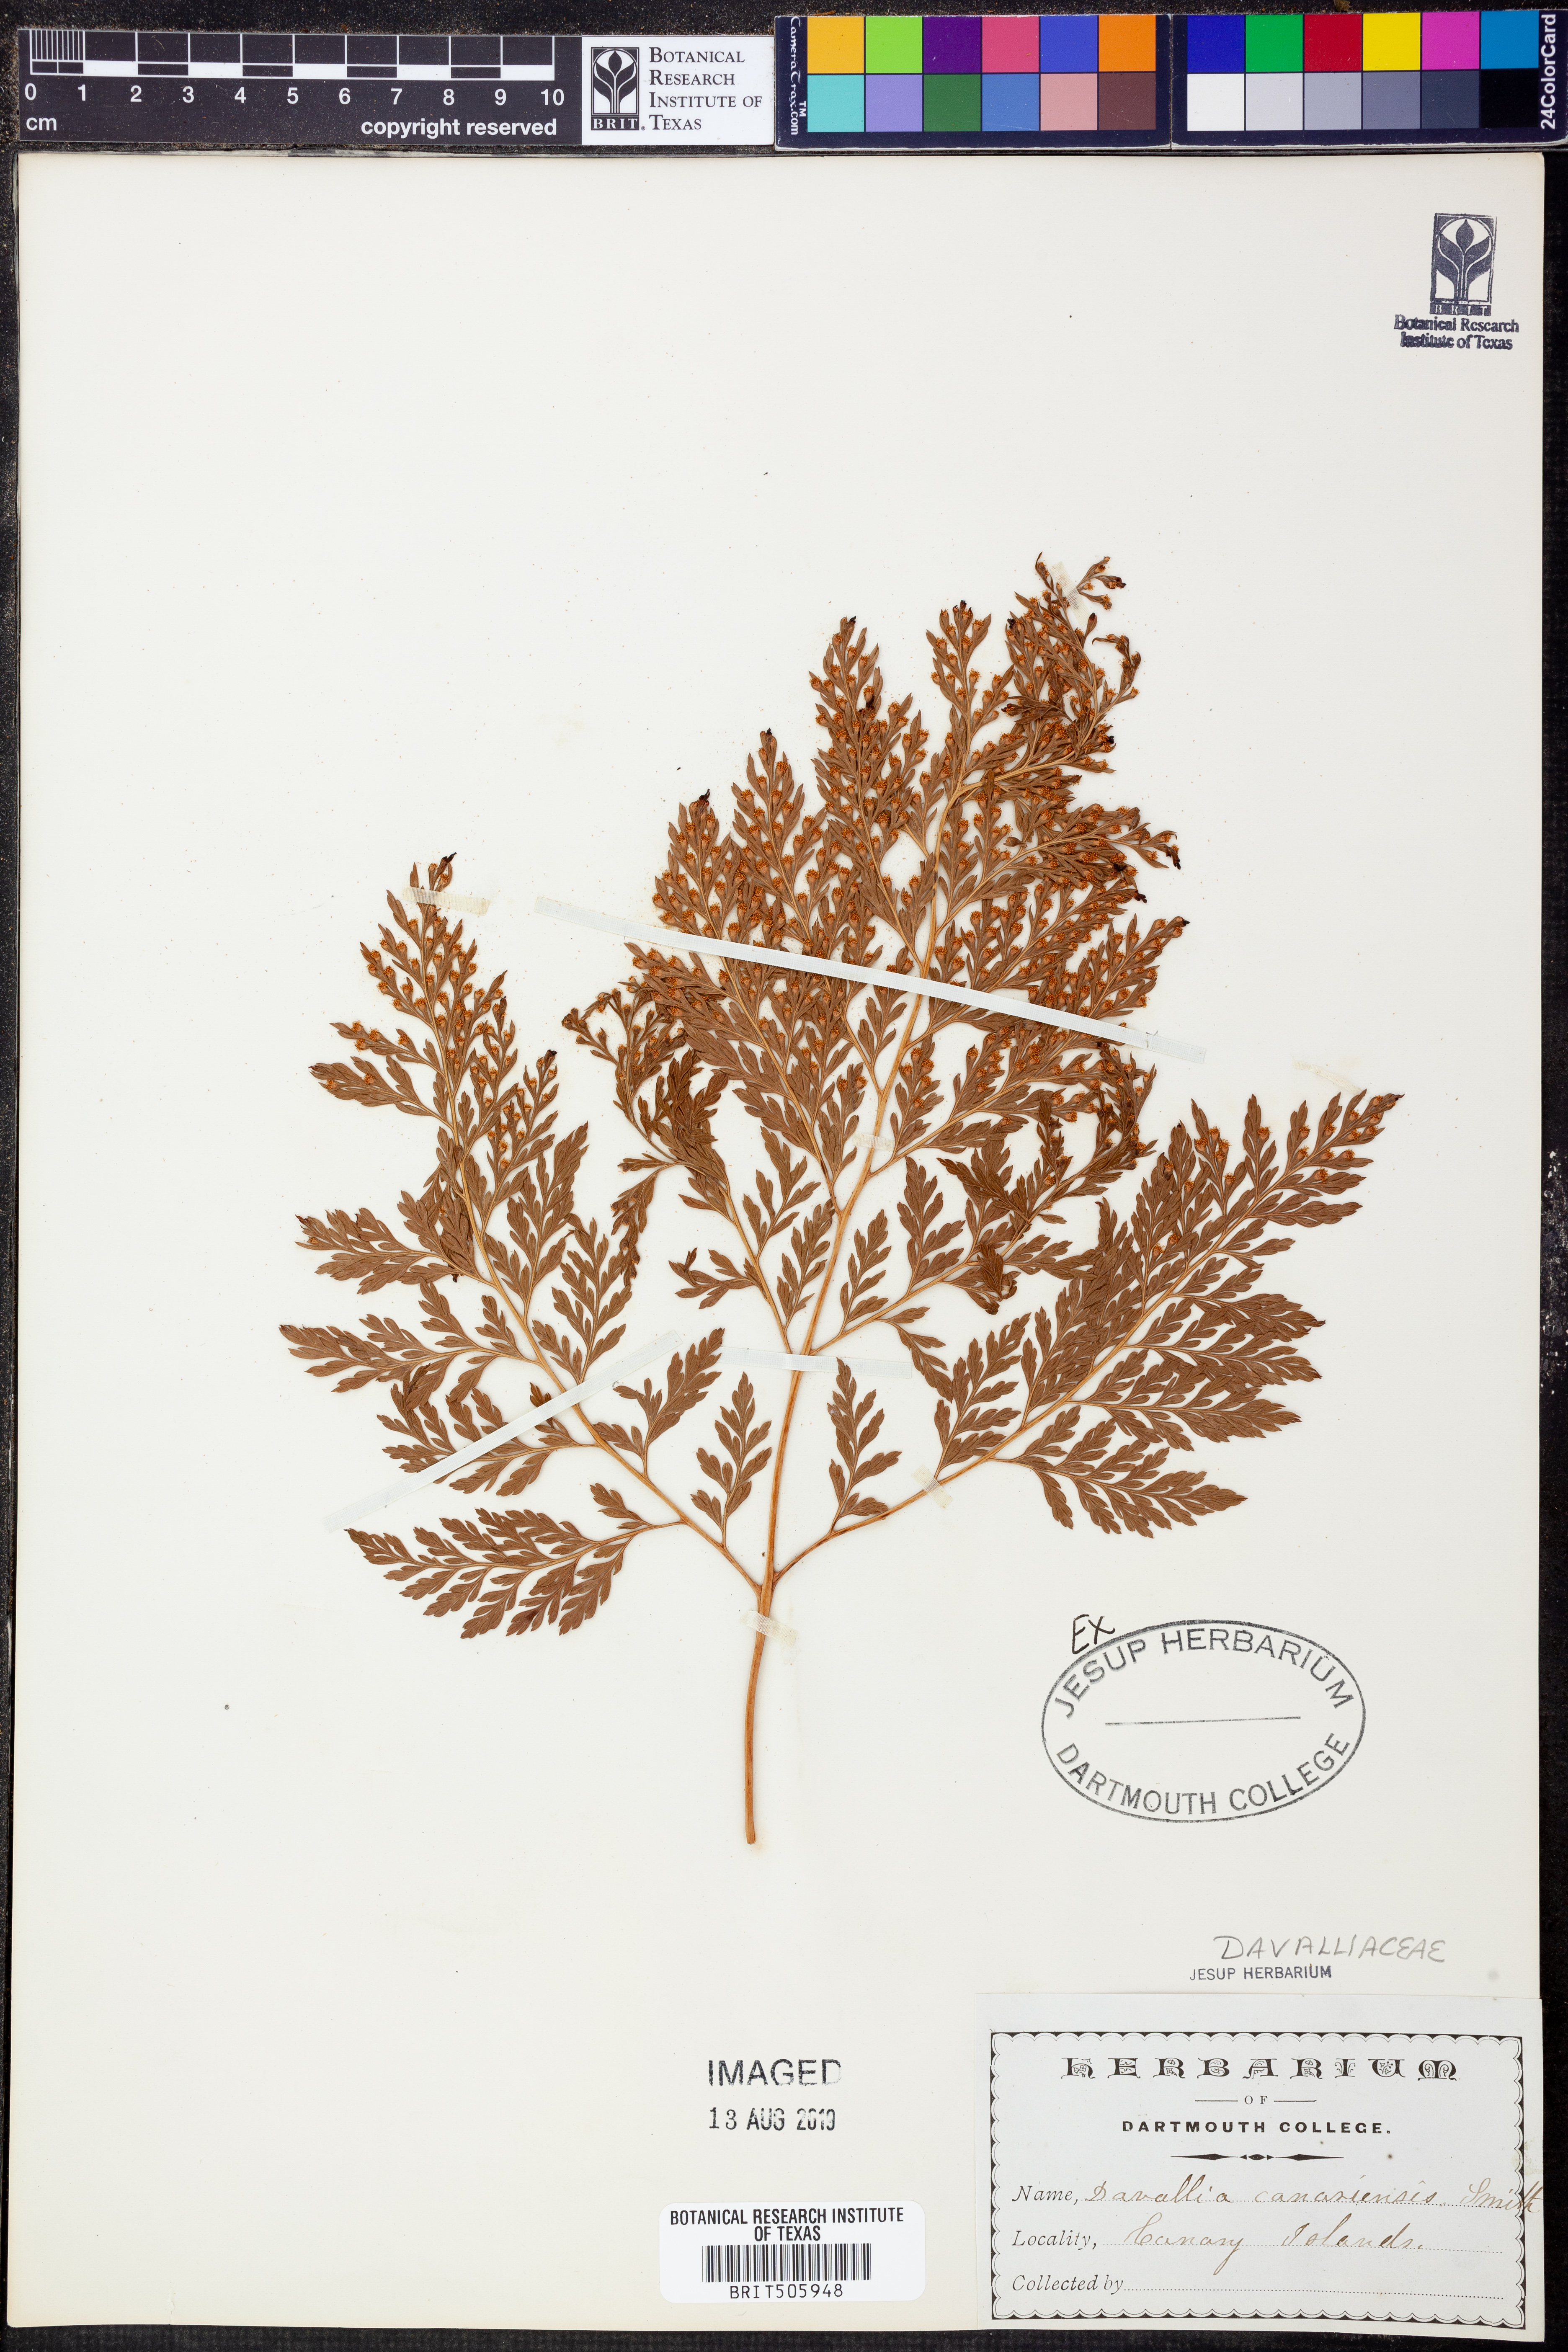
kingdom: Plantae
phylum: Tracheophyta
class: Polypodiopsida
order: Polypodiales
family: Davalliaceae
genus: Davallia
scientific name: Davallia canariensis
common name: Hare's-foot fern
